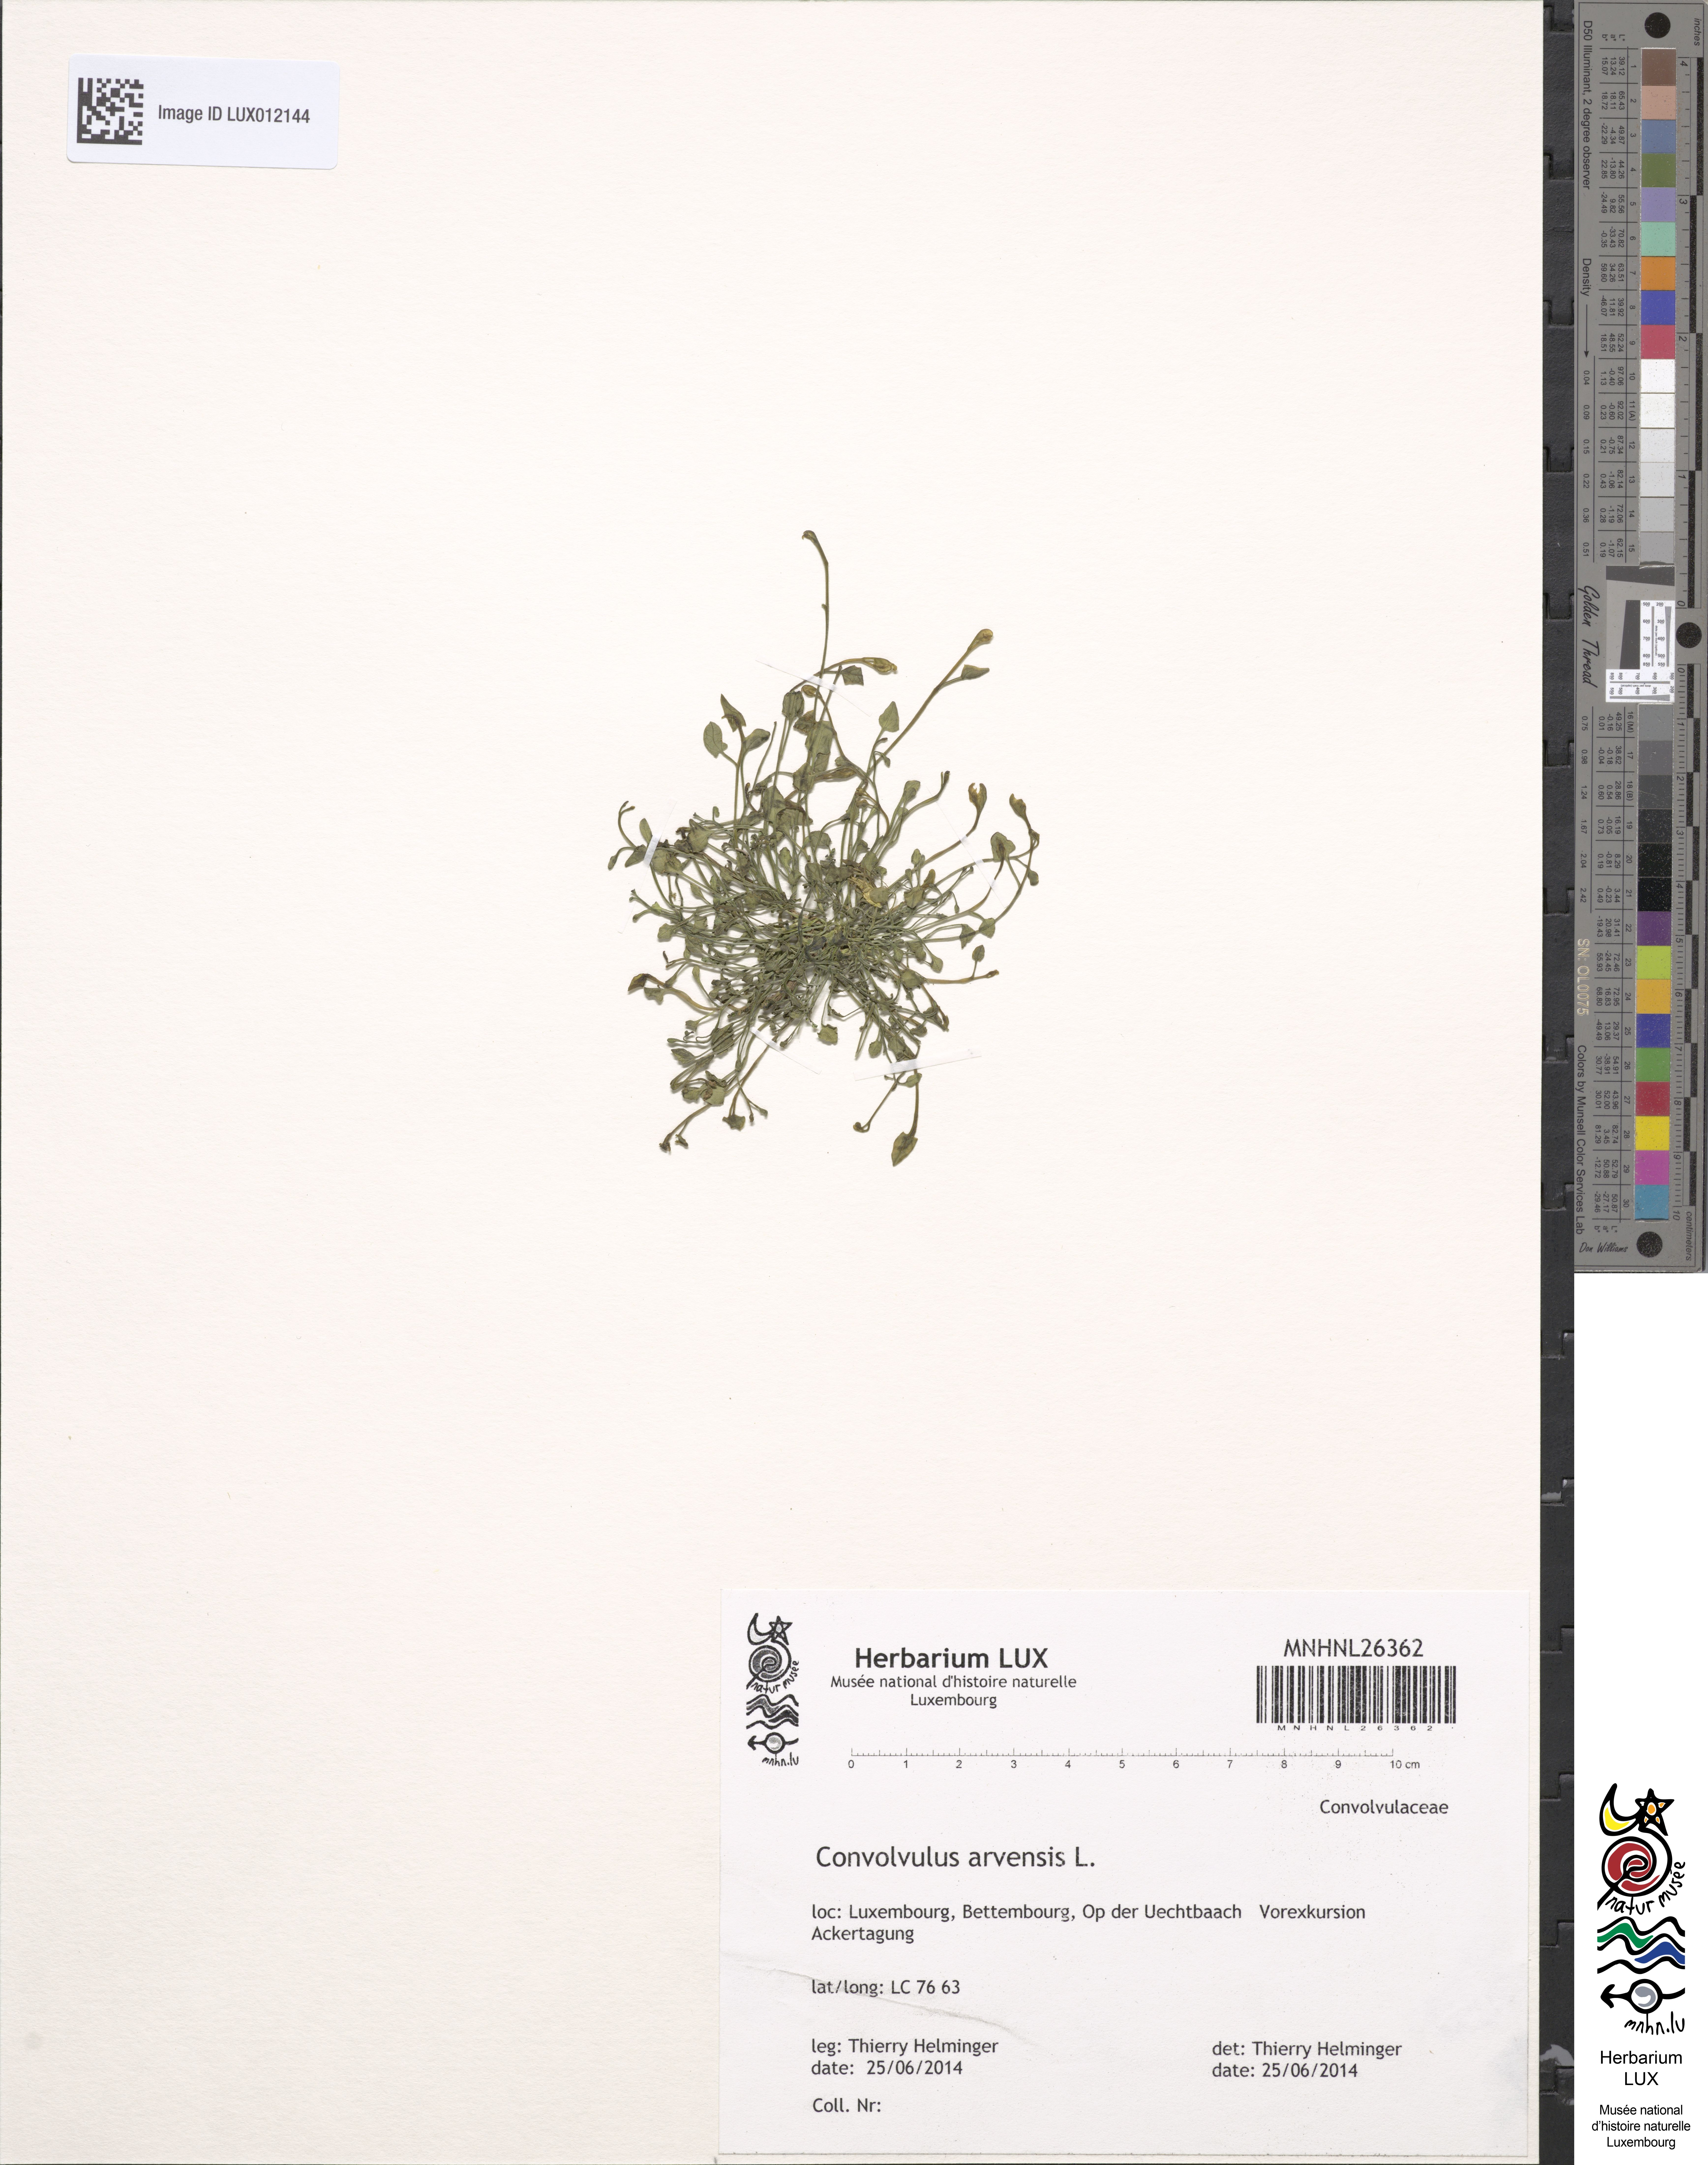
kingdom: Plantae
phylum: Tracheophyta
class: Magnoliopsida
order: Solanales
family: Convolvulaceae
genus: Convolvulus
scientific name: Convolvulus arvensis
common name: Field bindweed
